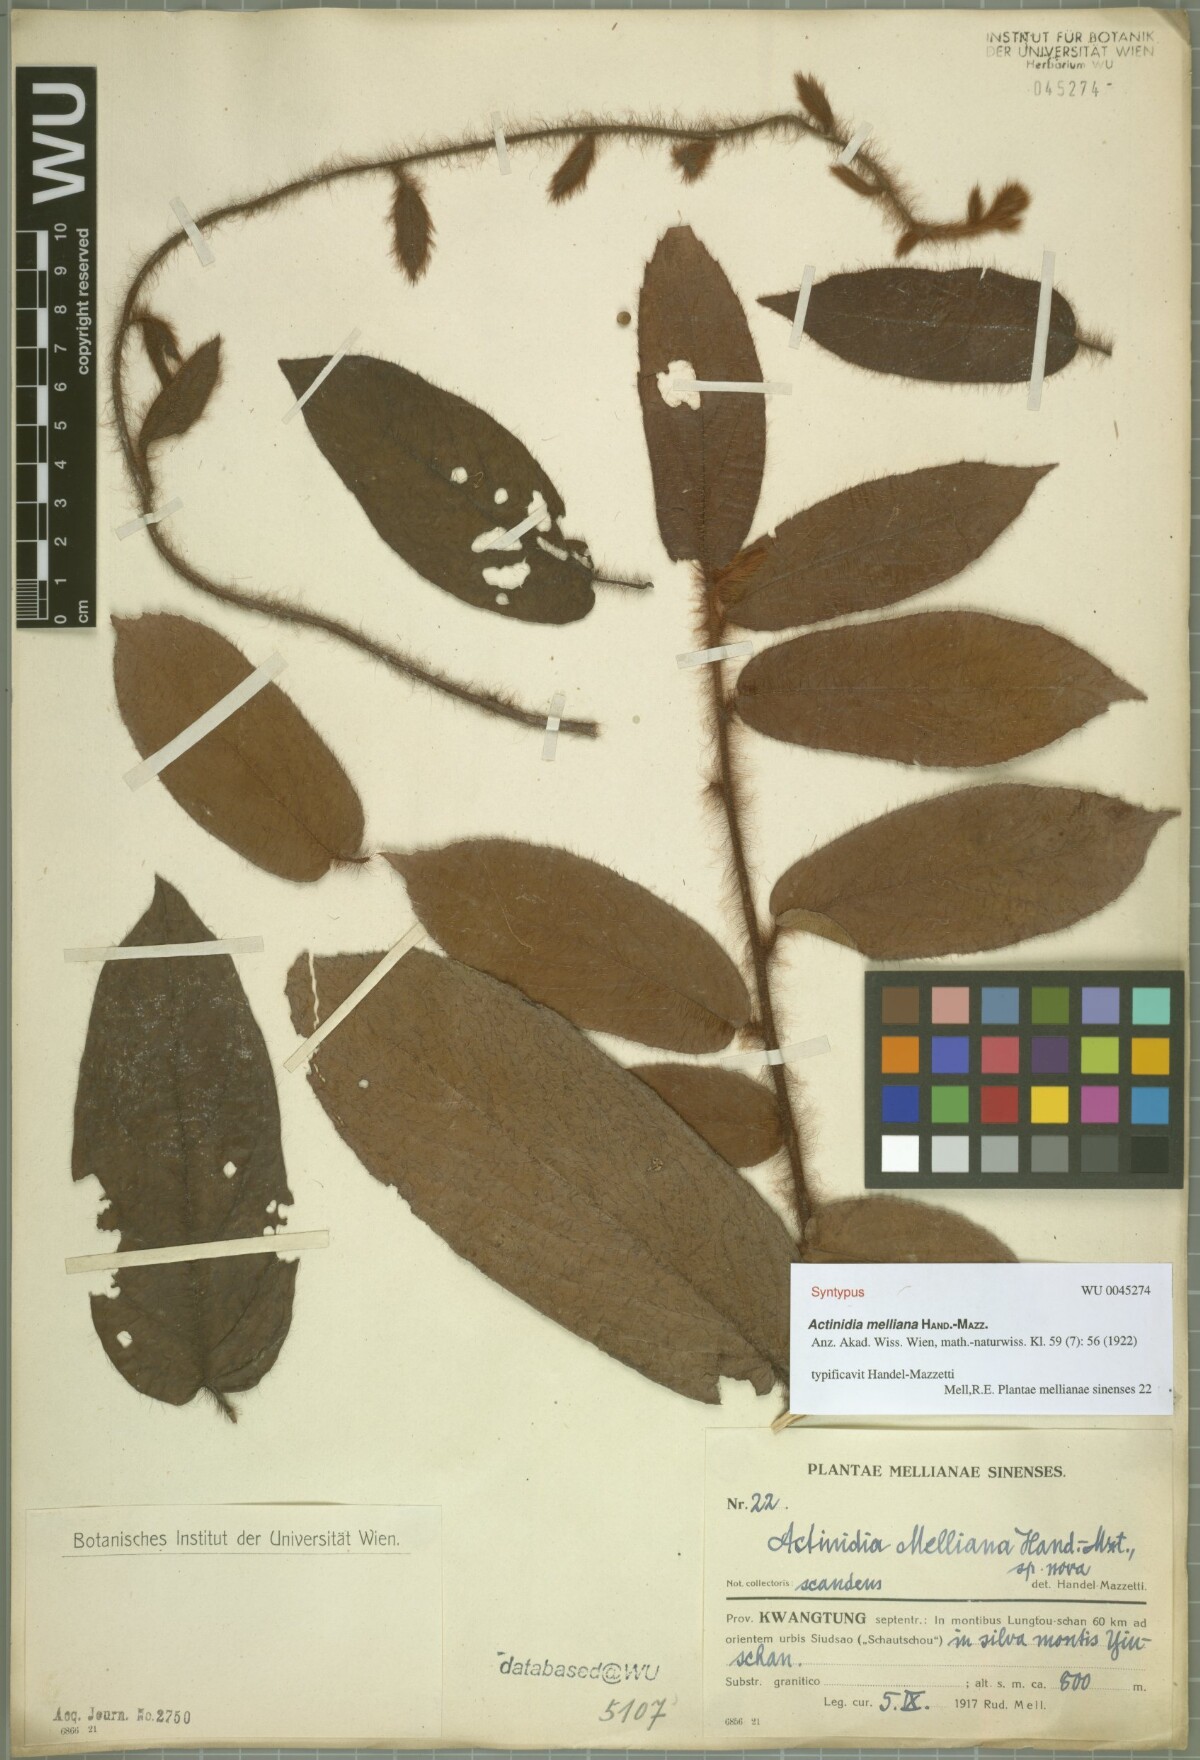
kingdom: Plantae
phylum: Tracheophyta
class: Magnoliopsida
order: Ericales
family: Actinidiaceae
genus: Actinidia
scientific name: Actinidia melliana
